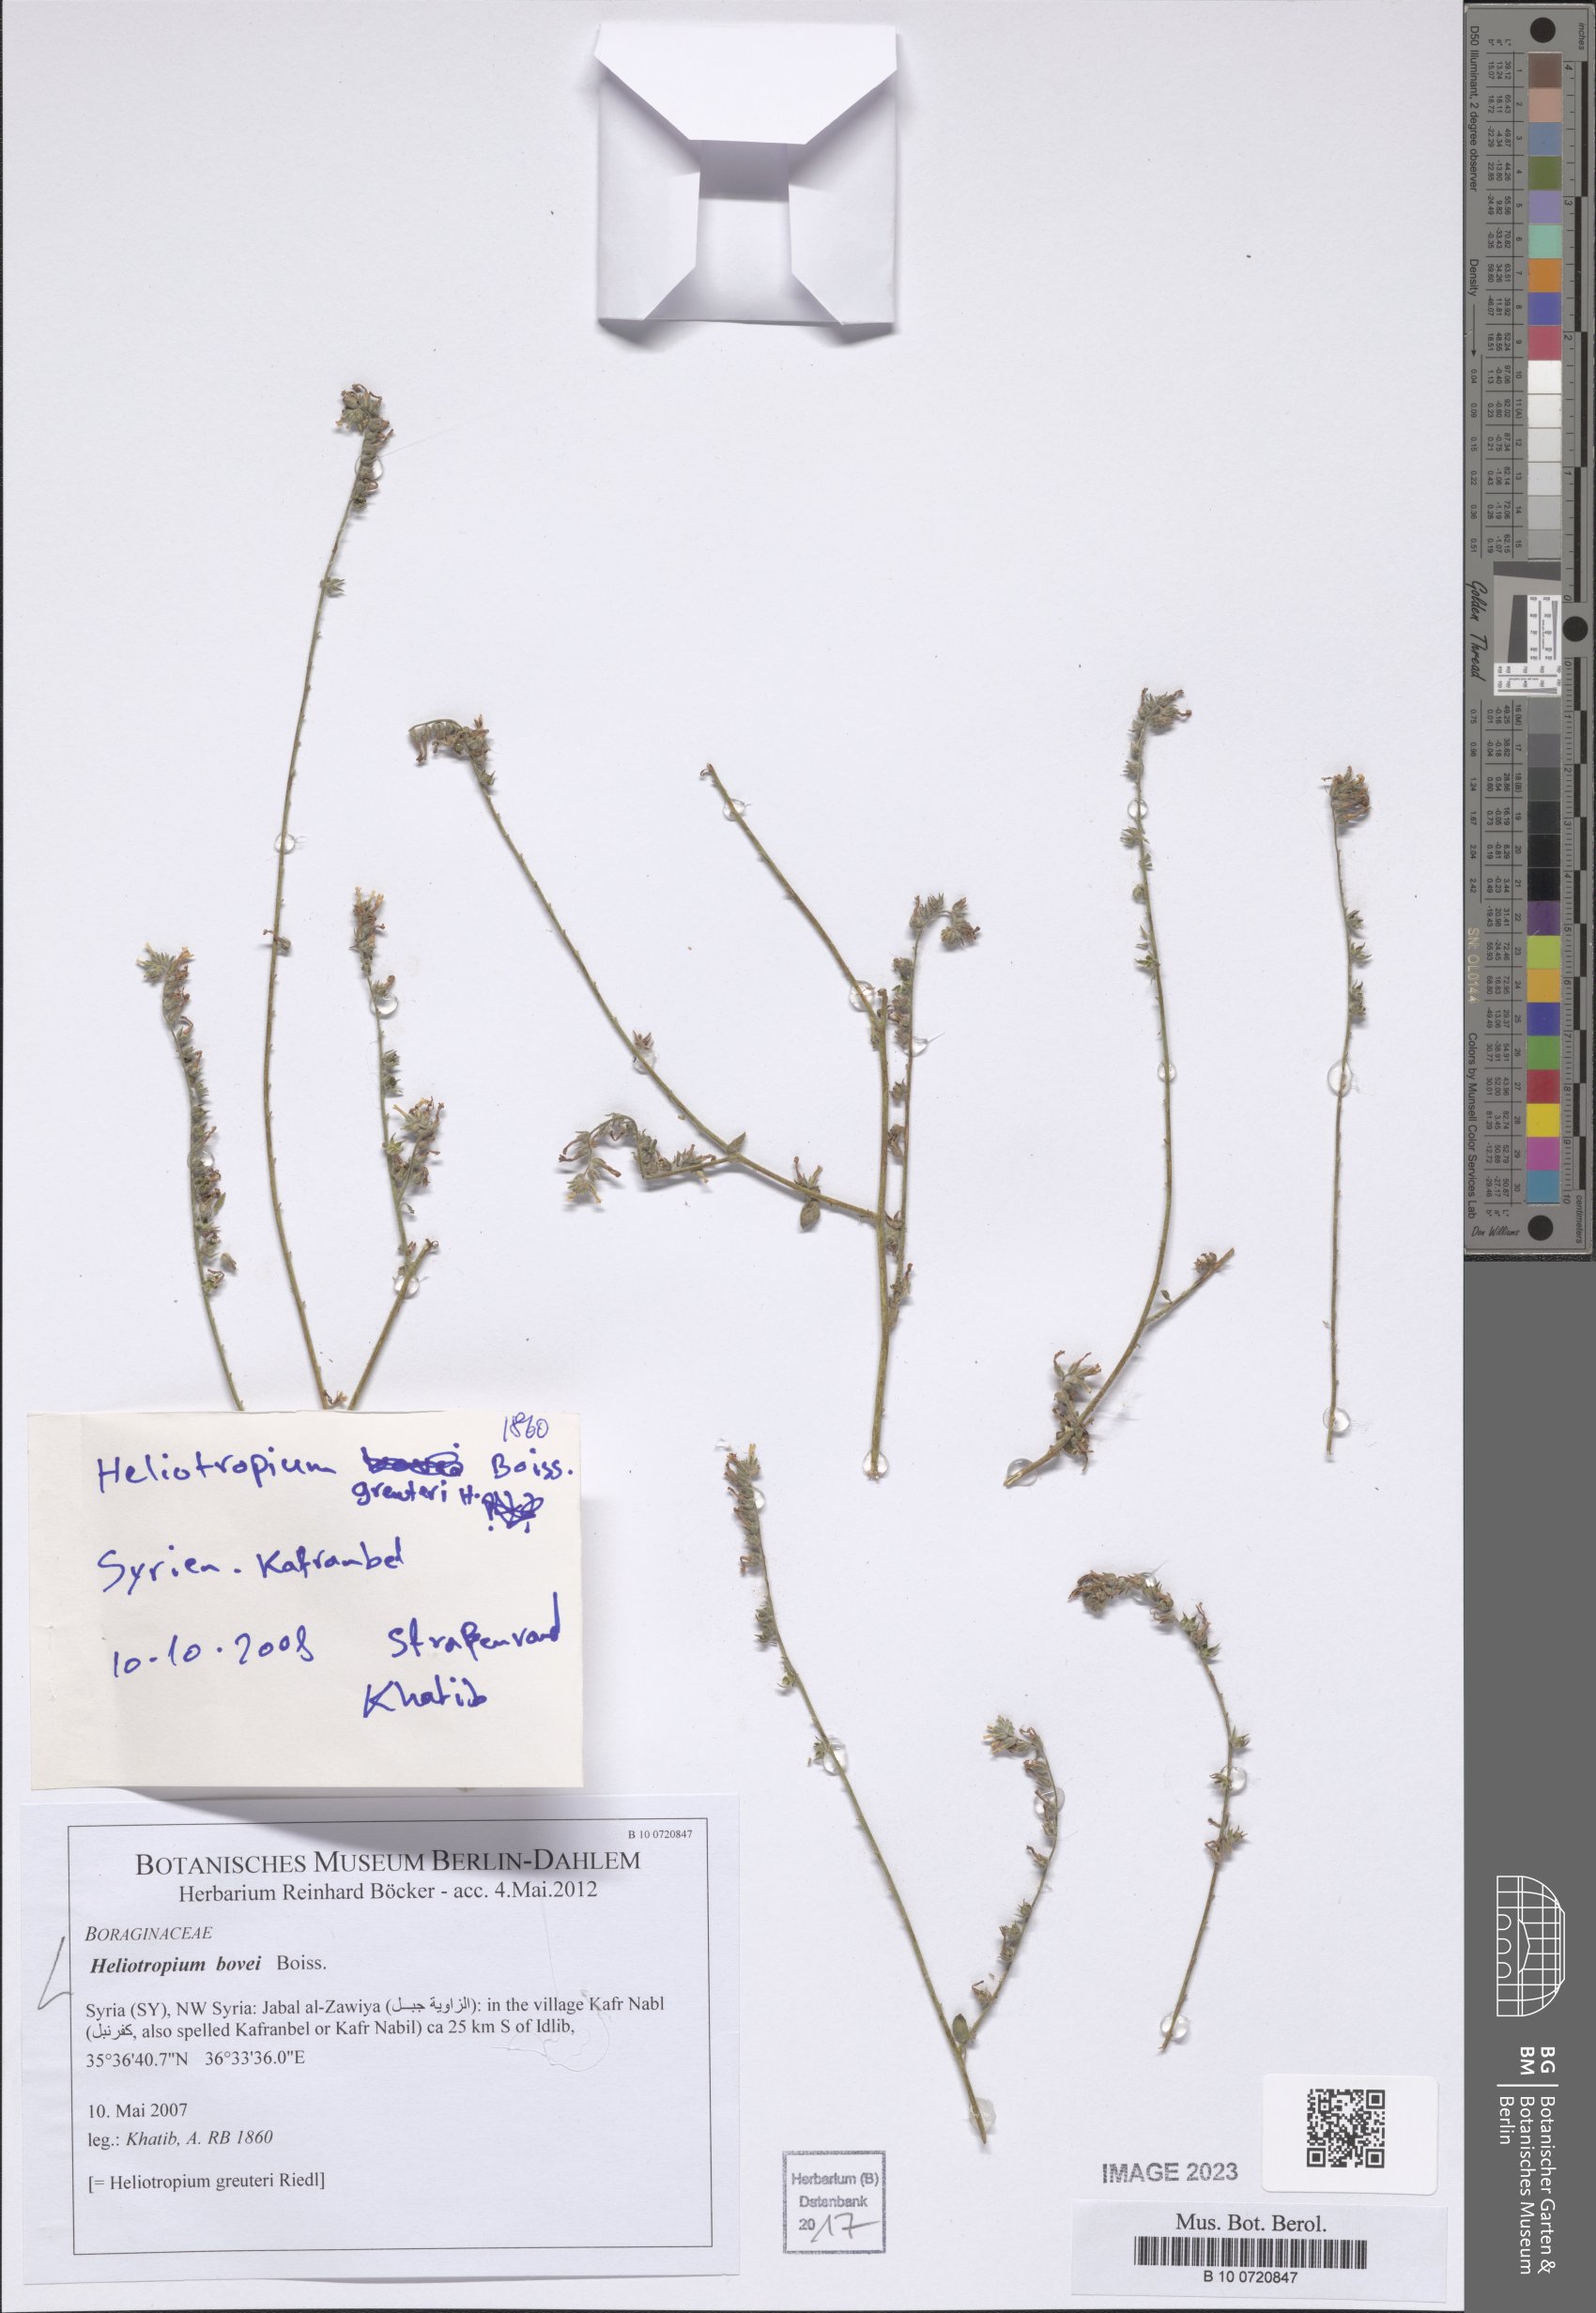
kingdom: Plantae
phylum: Tracheophyta
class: Magnoliopsida
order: Boraginales
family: Heliotropiaceae
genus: Heliotropium
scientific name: Heliotropium bovei
